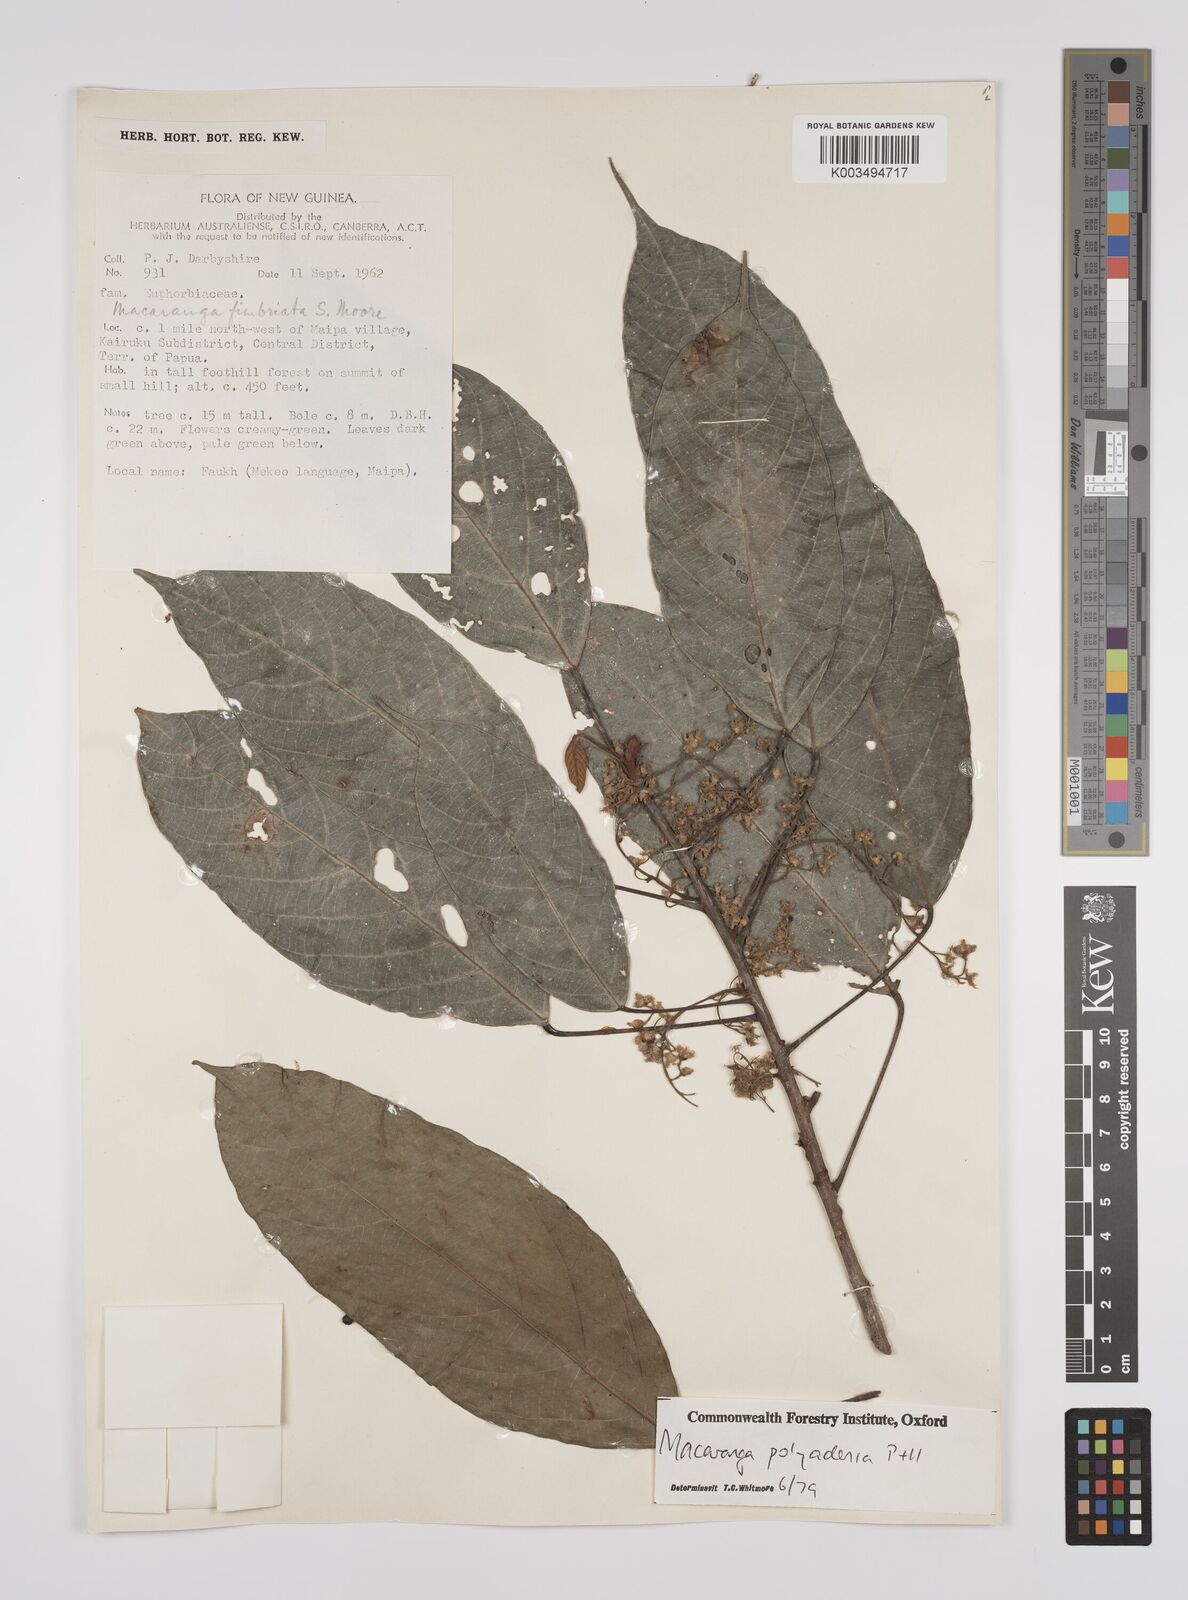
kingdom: Plantae
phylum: Tracheophyta
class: Magnoliopsida
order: Malpighiales
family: Euphorbiaceae
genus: Macaranga
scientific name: Macaranga polyadenia
